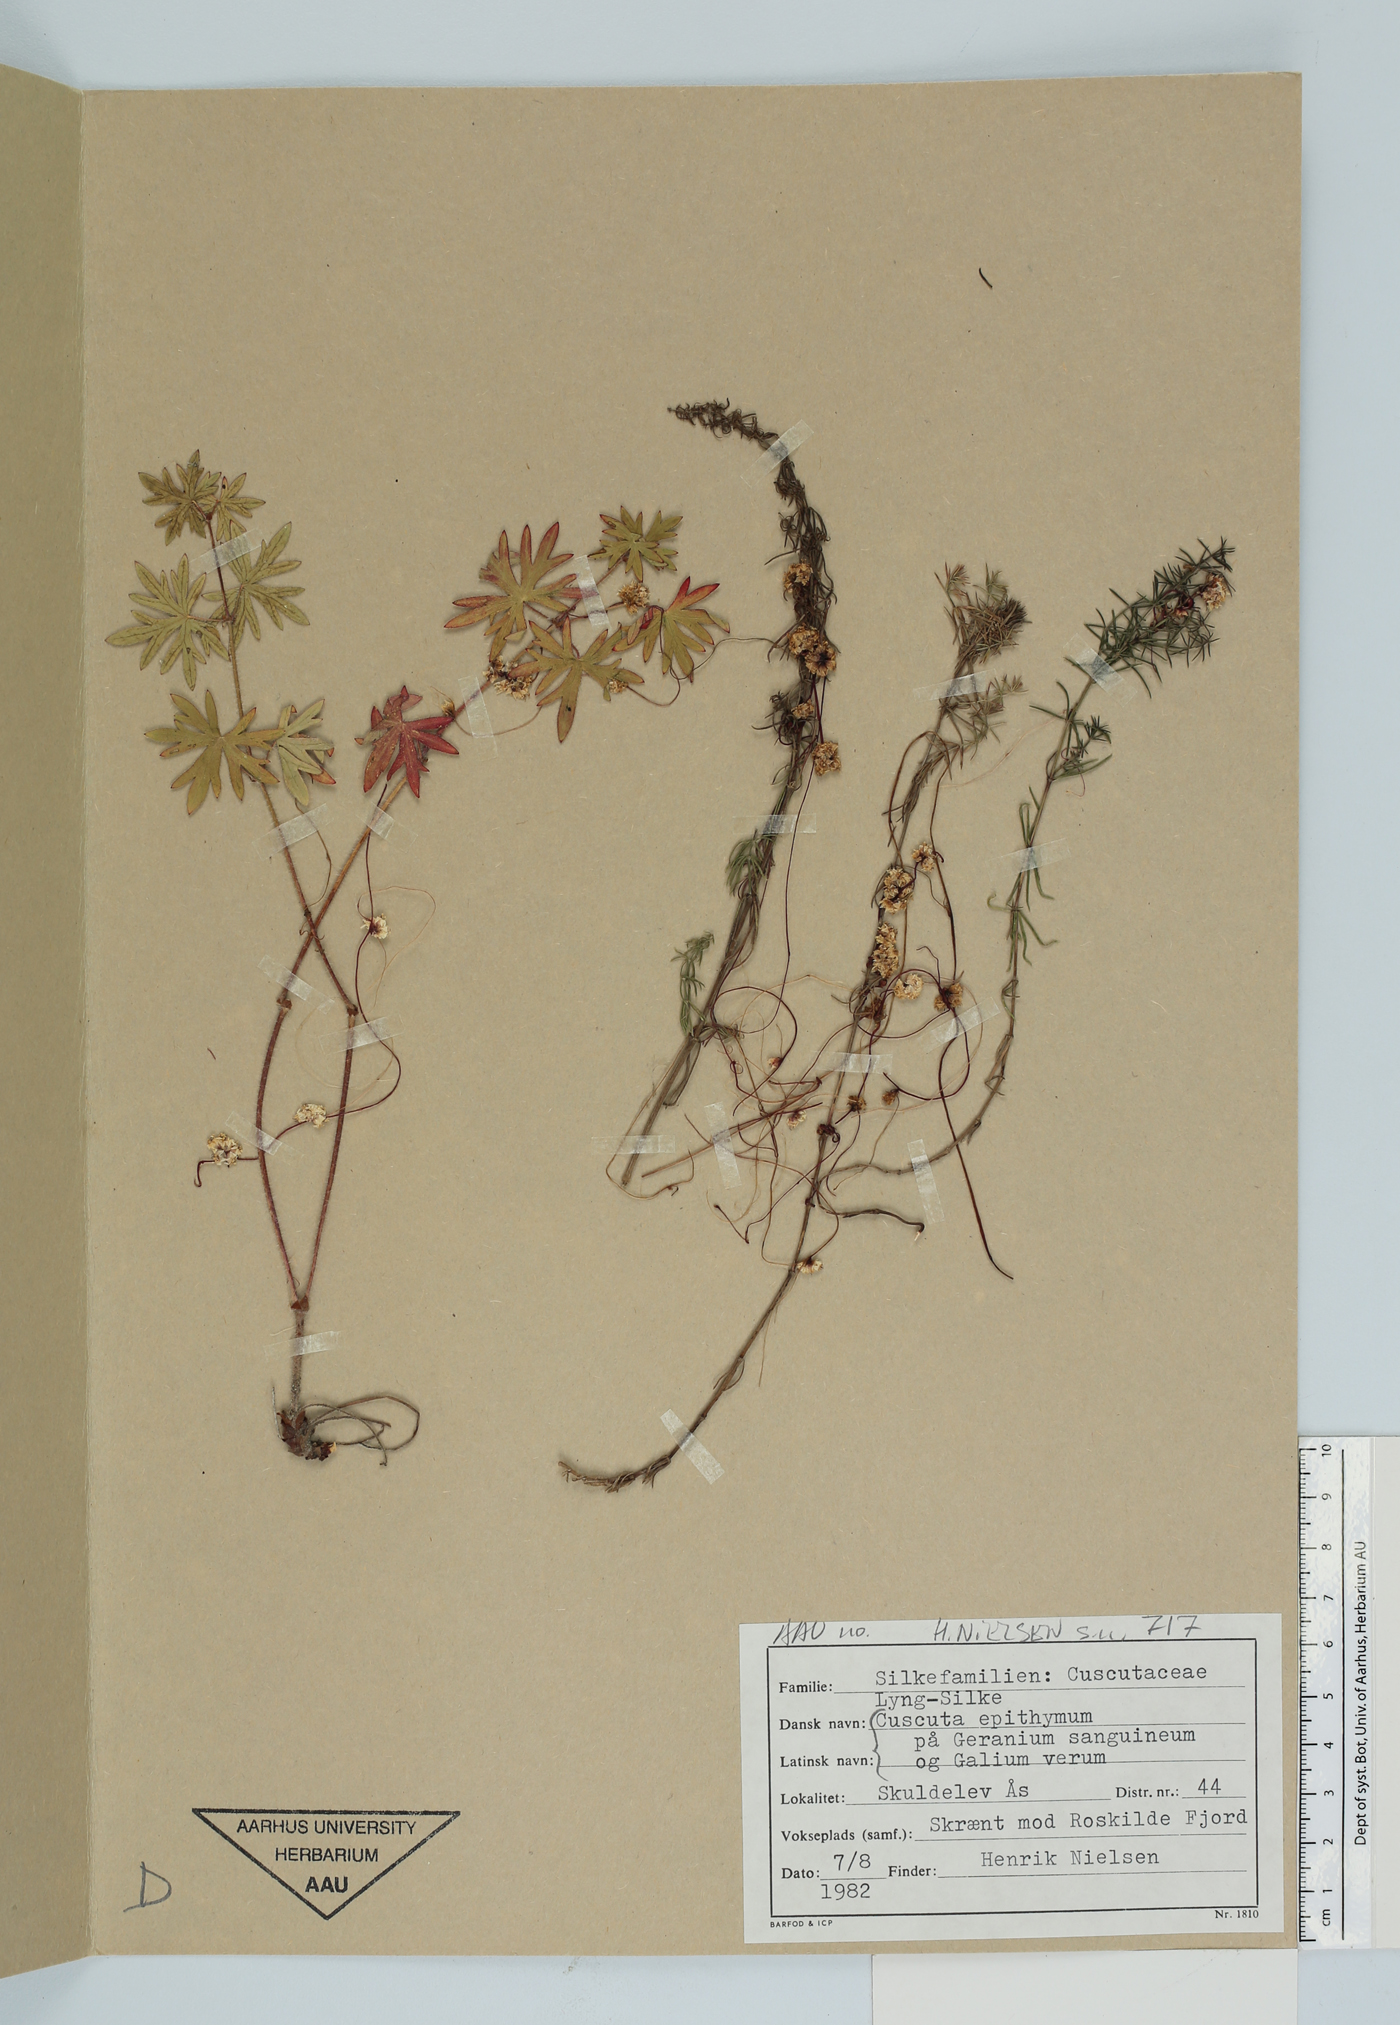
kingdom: Plantae
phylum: Tracheophyta
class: Magnoliopsida
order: Solanales
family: Convolvulaceae
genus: Cuscuta
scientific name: Cuscuta epithymum
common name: Clover dodder
